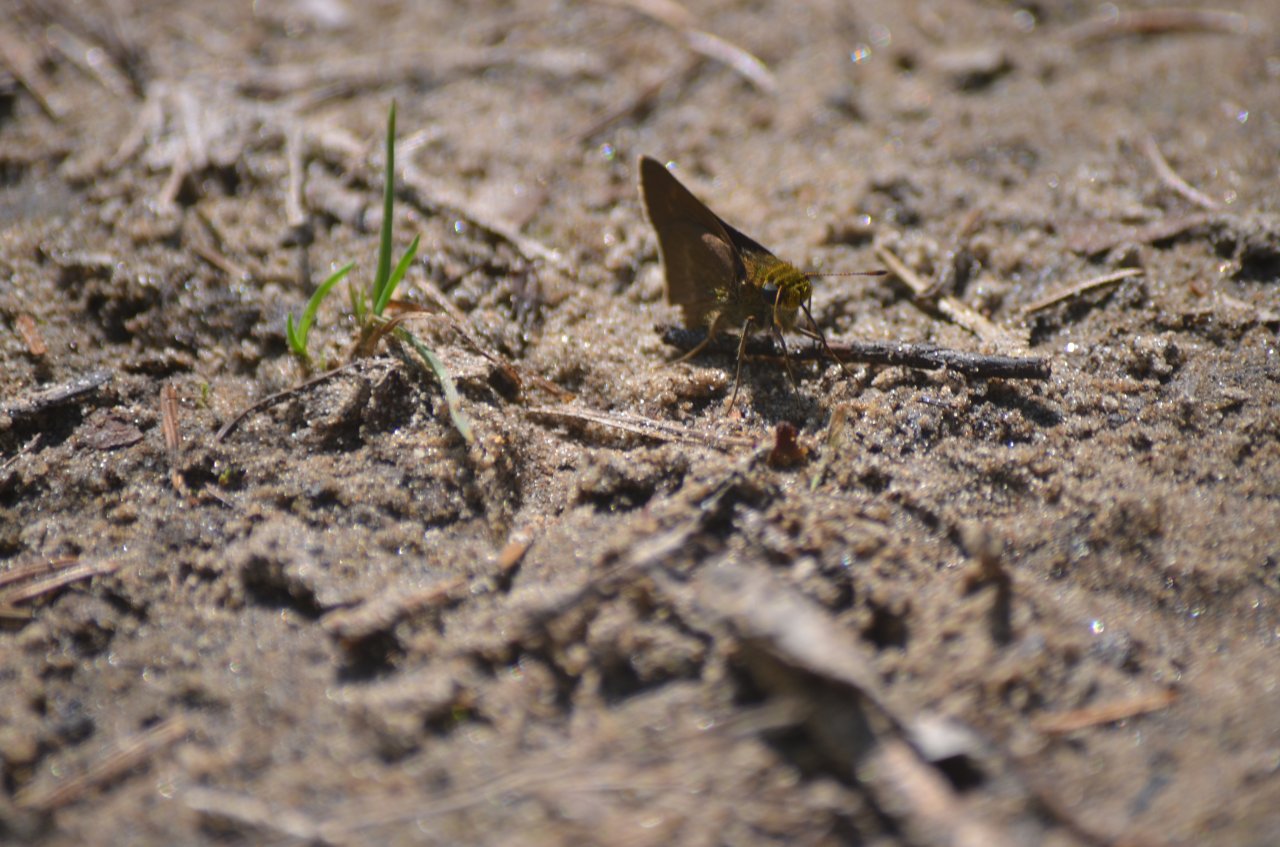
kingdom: Animalia
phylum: Arthropoda
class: Insecta
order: Lepidoptera
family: Hesperiidae
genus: Euphyes
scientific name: Euphyes vestris
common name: Dun Skipper
